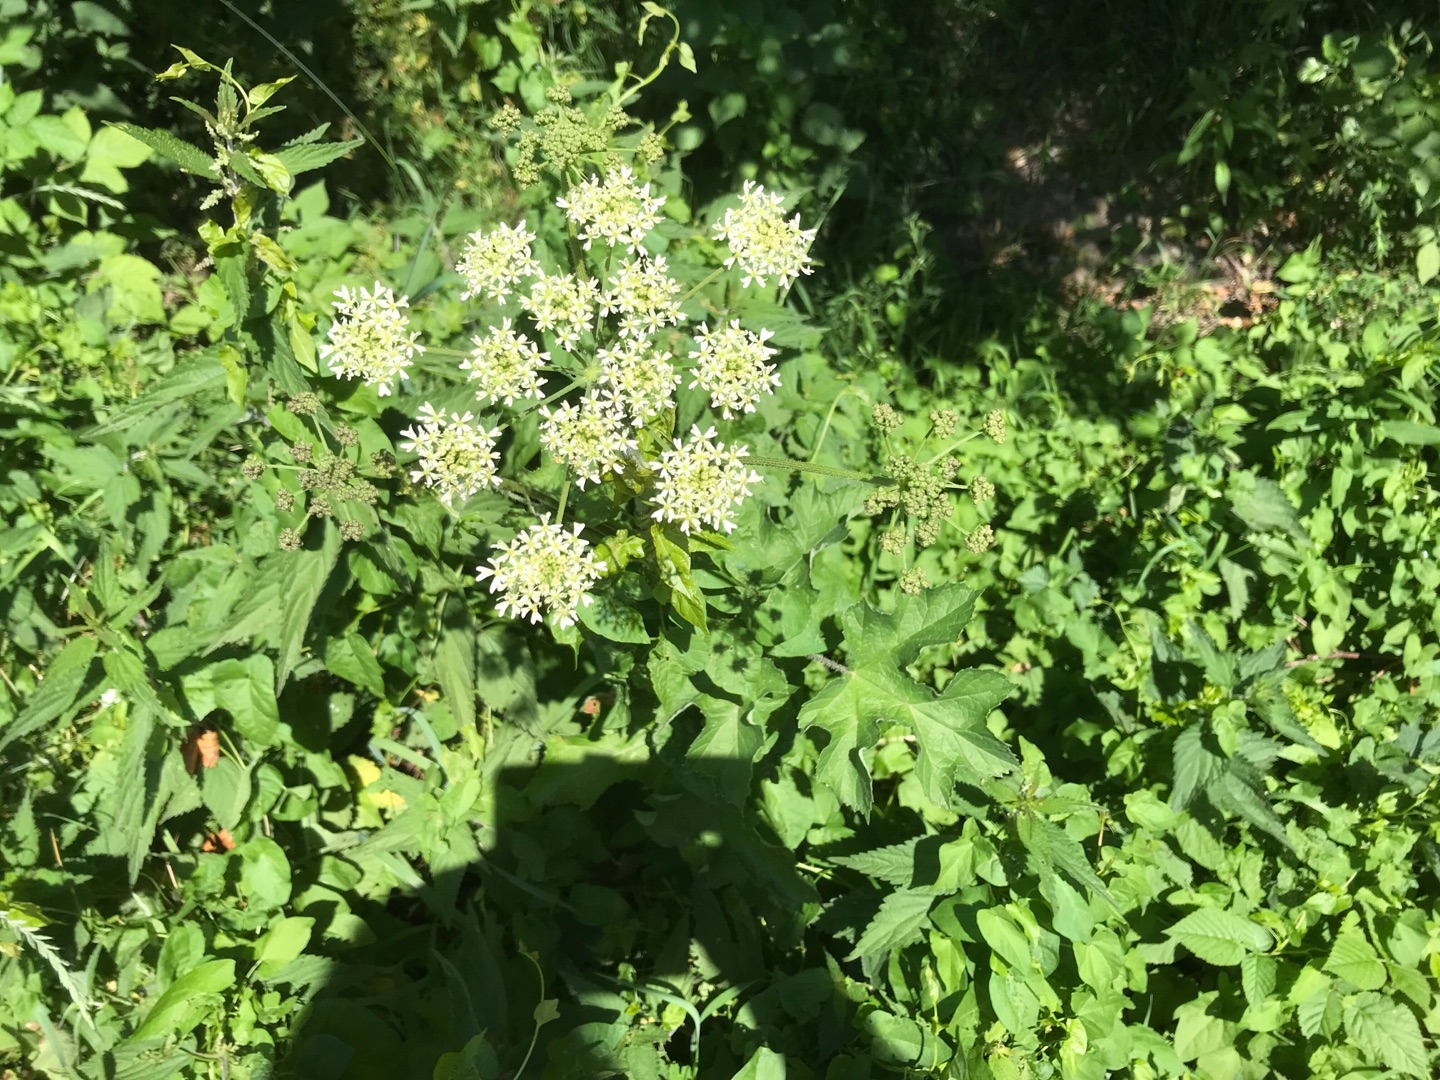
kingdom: Plantae
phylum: Tracheophyta
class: Magnoliopsida
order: Apiales
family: Apiaceae
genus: Heracleum
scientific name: Heracleum sphondylium
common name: Almindelig bjørneklo
